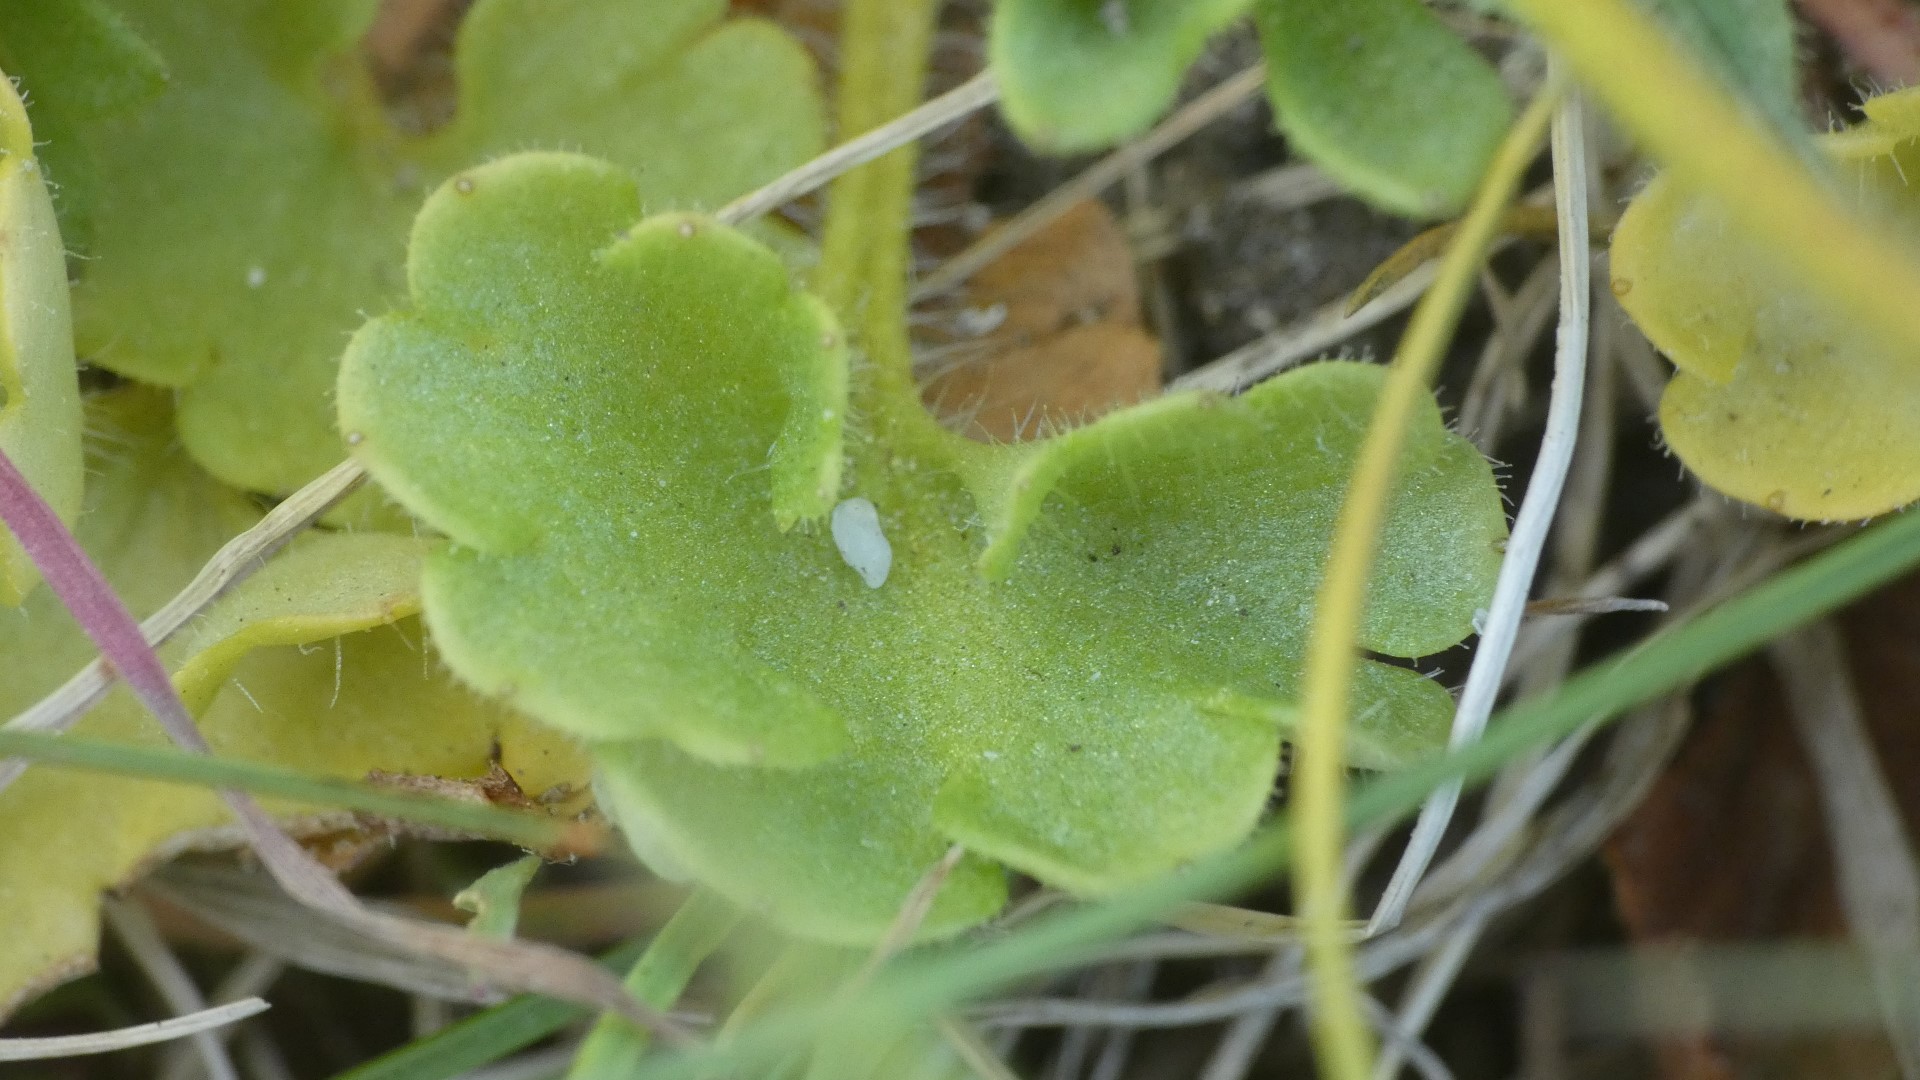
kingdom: Plantae
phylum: Tracheophyta
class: Magnoliopsida
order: Saxifragales
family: Saxifragaceae
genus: Saxifraga
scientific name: Saxifraga granulata
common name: Kornet stenbræk
